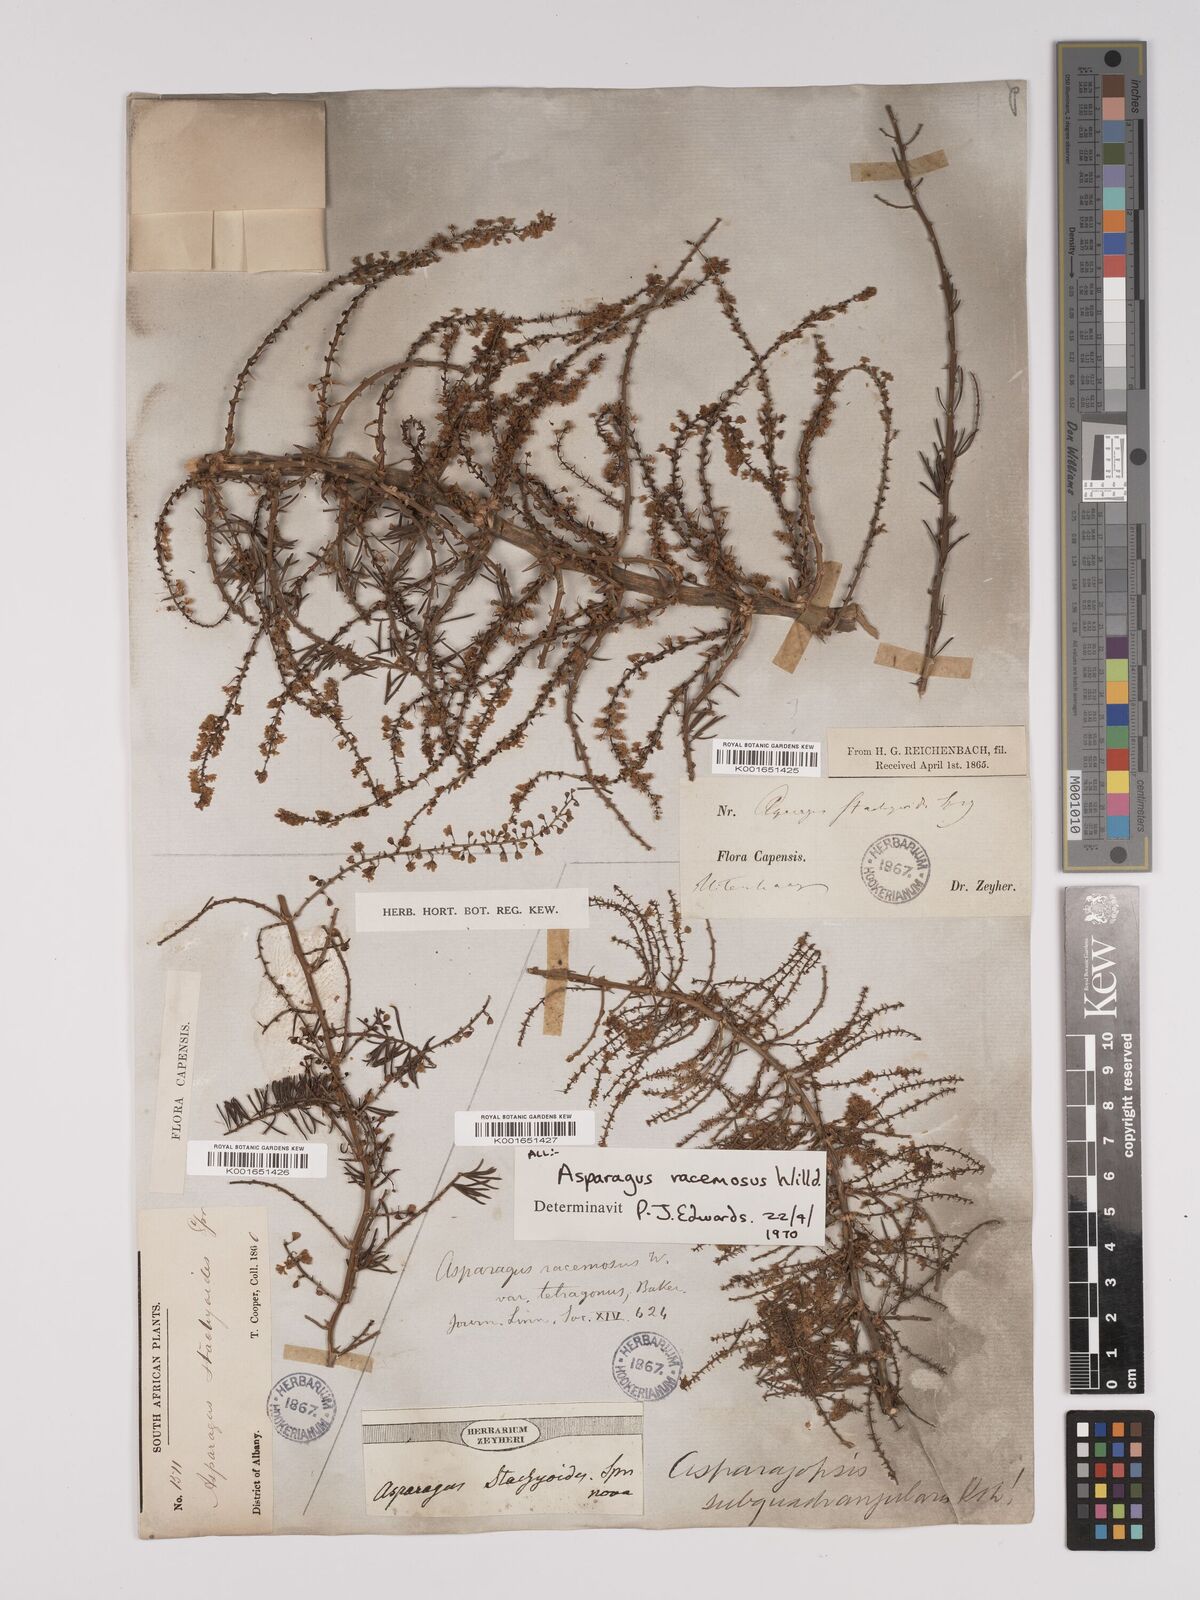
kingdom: Plantae
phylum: Tracheophyta
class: Liliopsida
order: Asparagales
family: Asparagaceae
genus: Asparagus
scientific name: Asparagus racemosus
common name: Asparagus-fern
